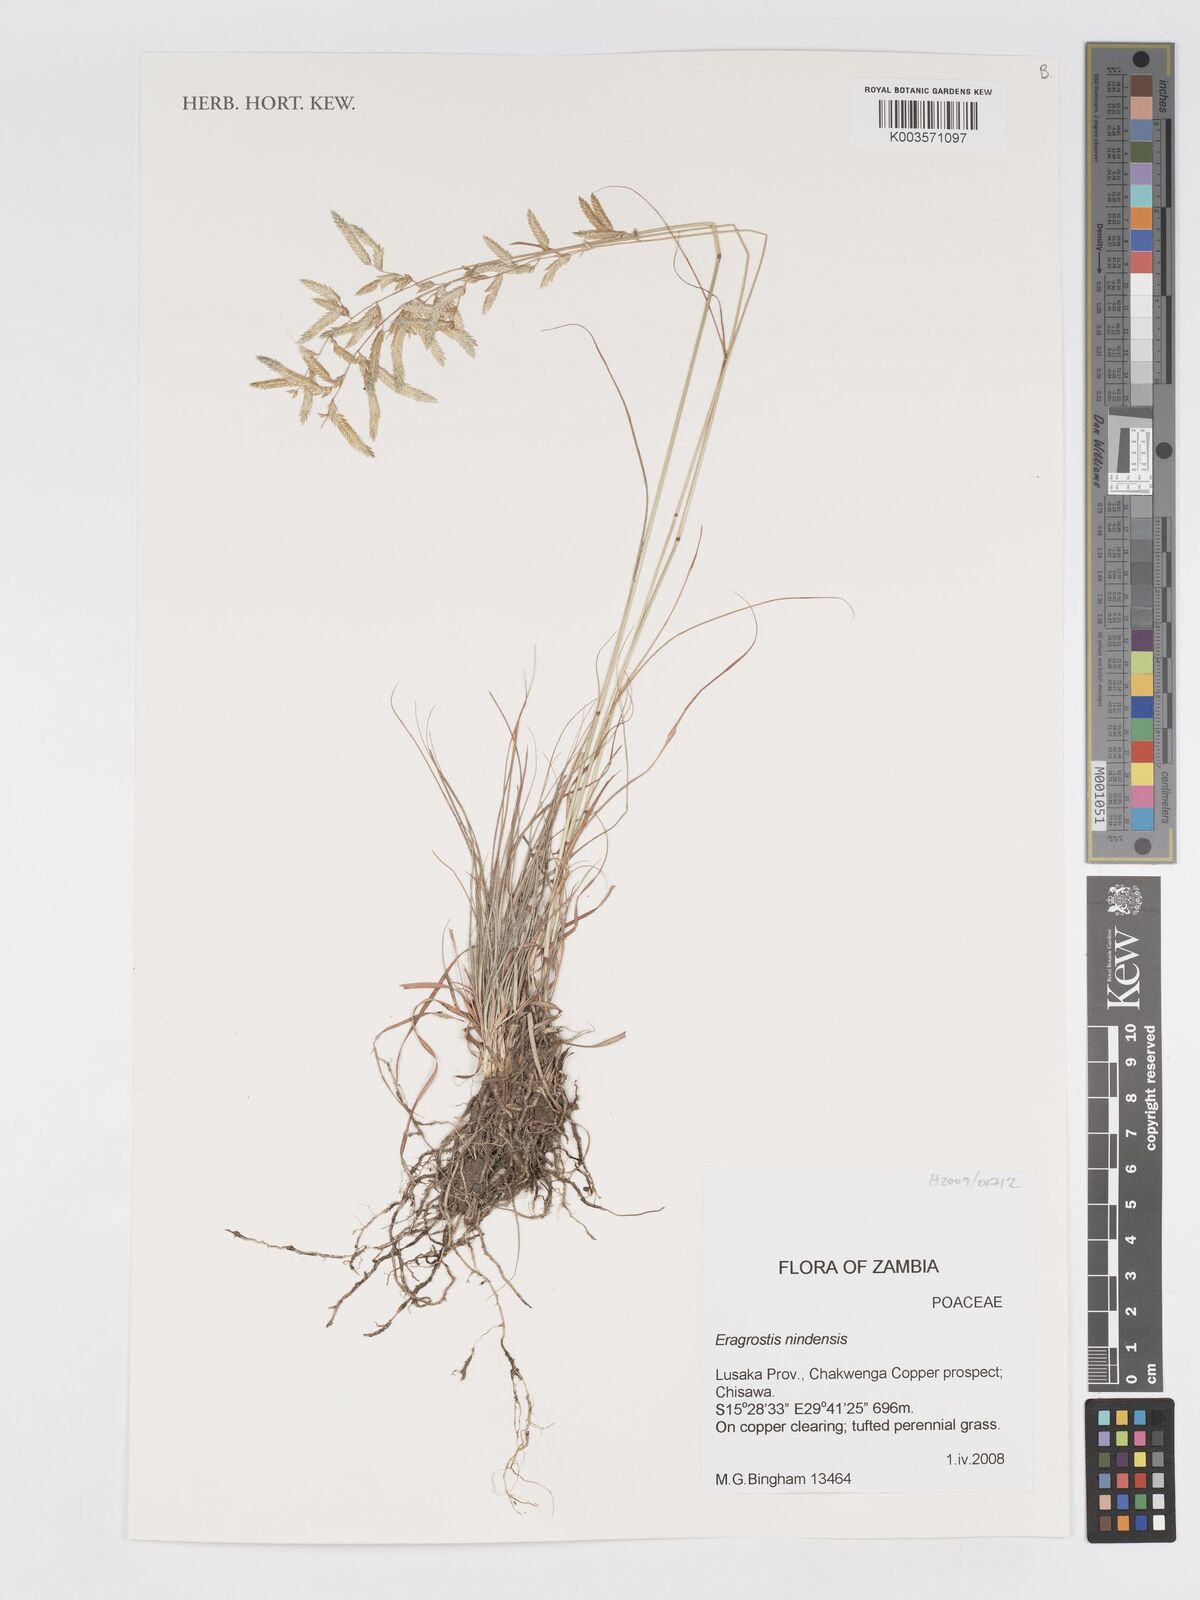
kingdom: Plantae
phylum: Tracheophyta
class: Liliopsida
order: Poales
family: Poaceae
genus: Eragrostis
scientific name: Eragrostis nindensis
